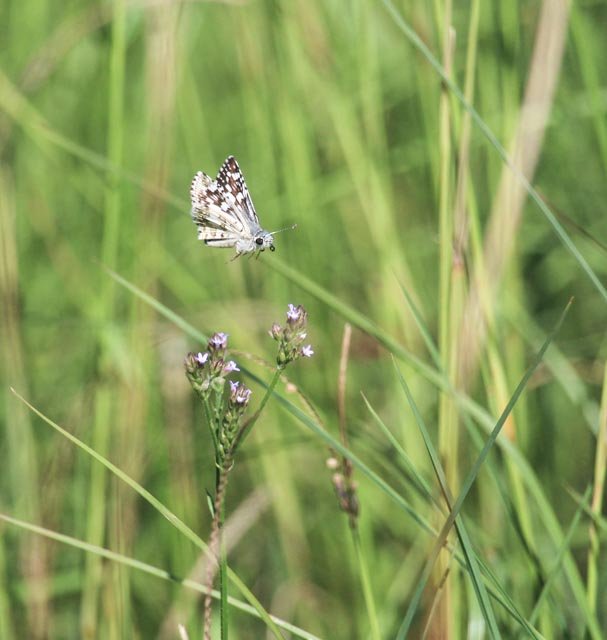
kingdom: Animalia
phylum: Arthropoda
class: Insecta
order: Lepidoptera
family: Hesperiidae
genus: Pyrgus
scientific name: Pyrgus communis
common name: White Checkered-Skipper
